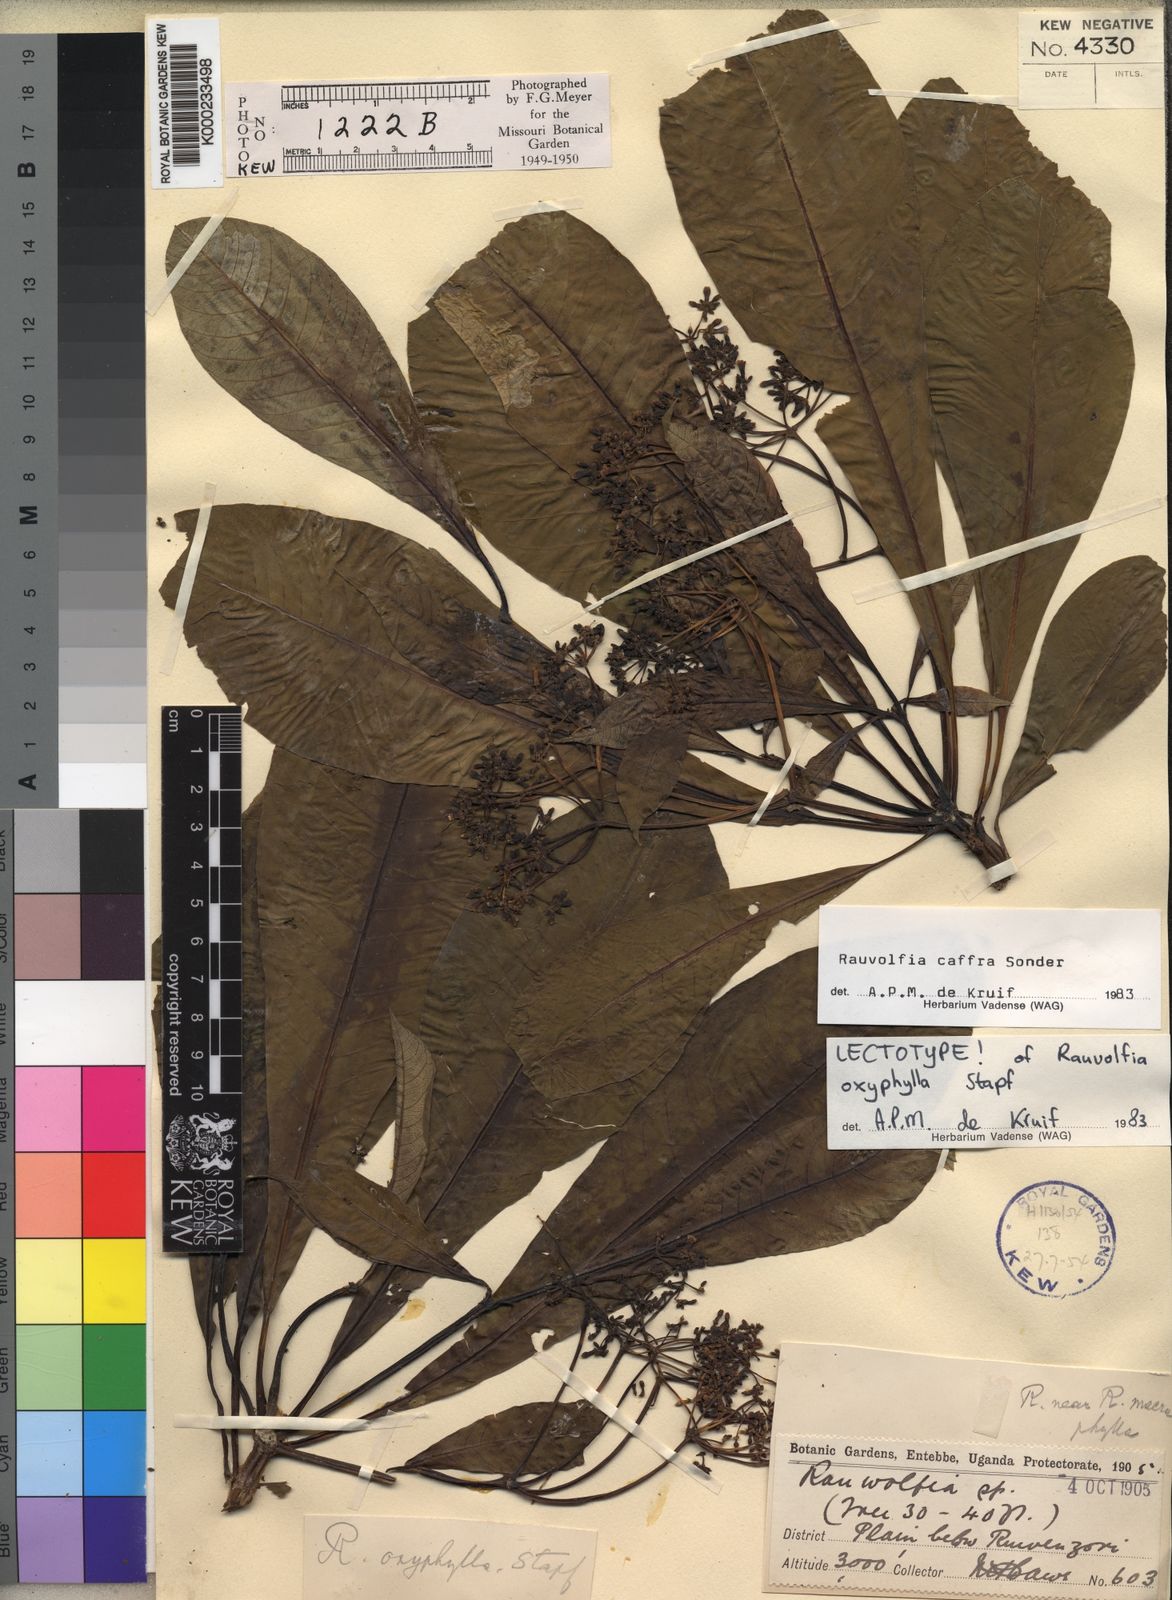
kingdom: Plantae
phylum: Tracheophyta
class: Magnoliopsida
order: Gentianales
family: Apocynaceae
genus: Rauvolfia
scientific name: Rauvolfia caffra
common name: Quininetree
